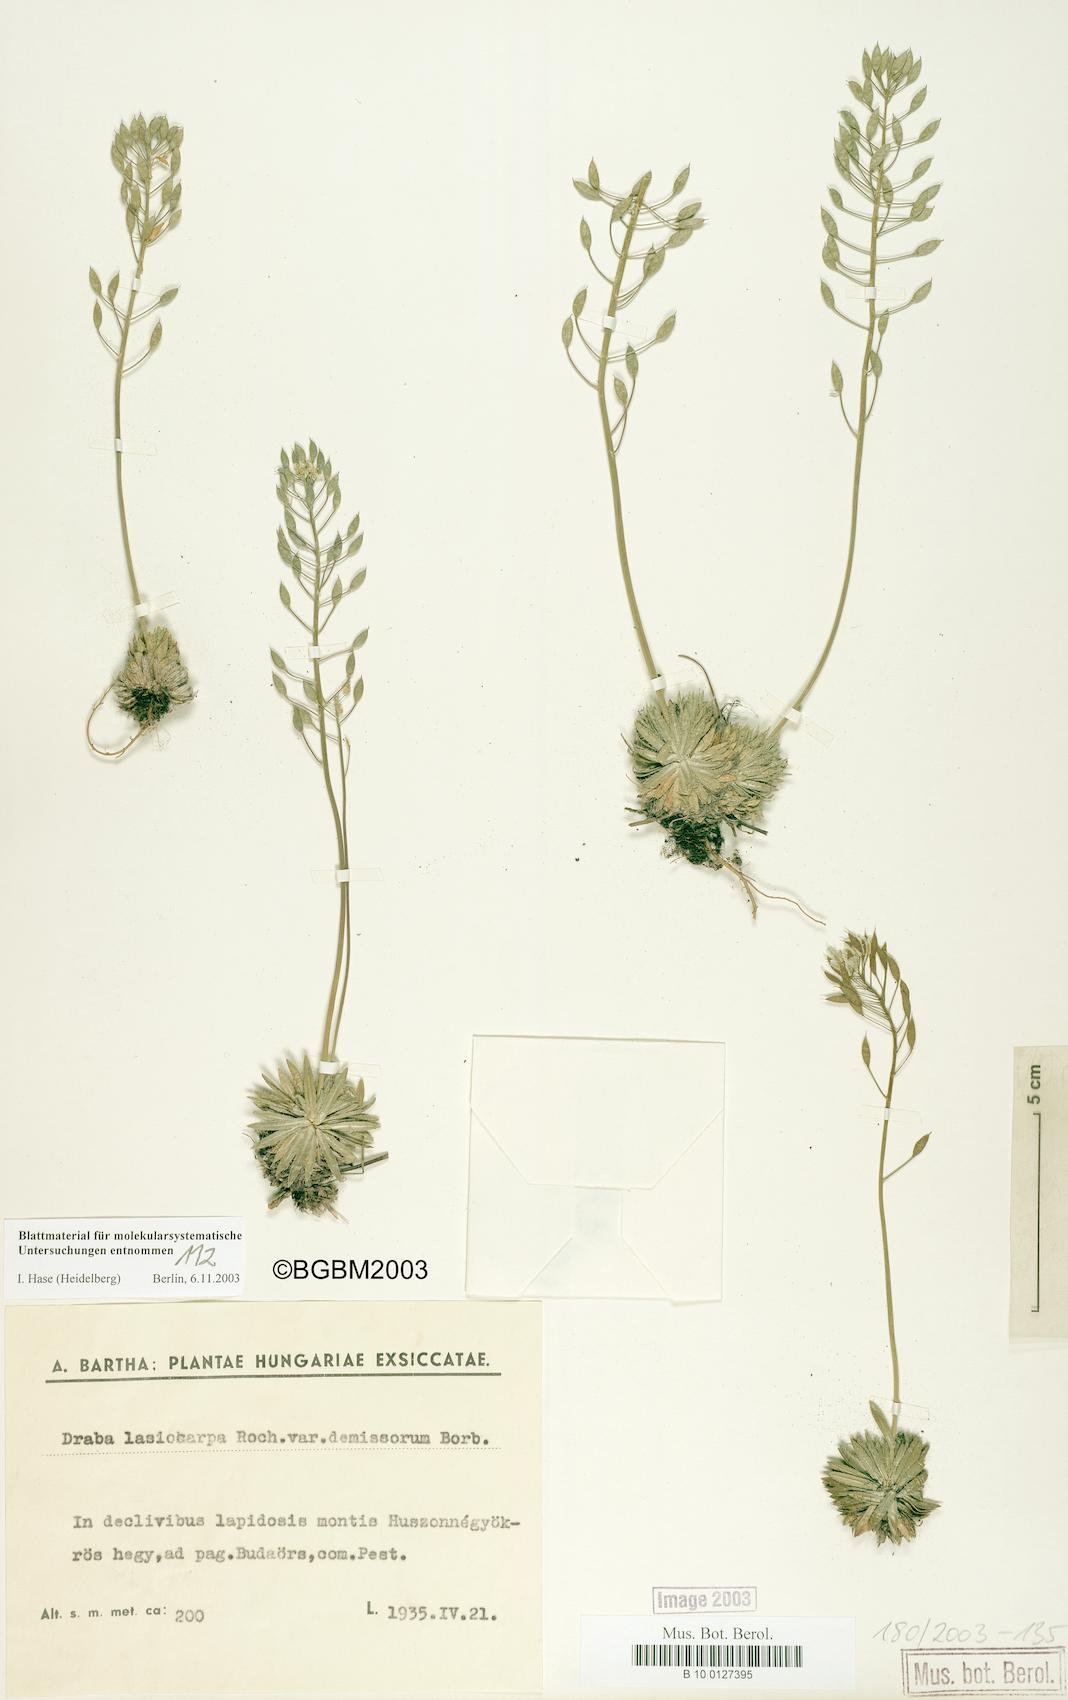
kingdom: Plantae
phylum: Tracheophyta
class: Magnoliopsida
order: Brassicales
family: Brassicaceae
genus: Draba
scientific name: Draba lasiocarpa
